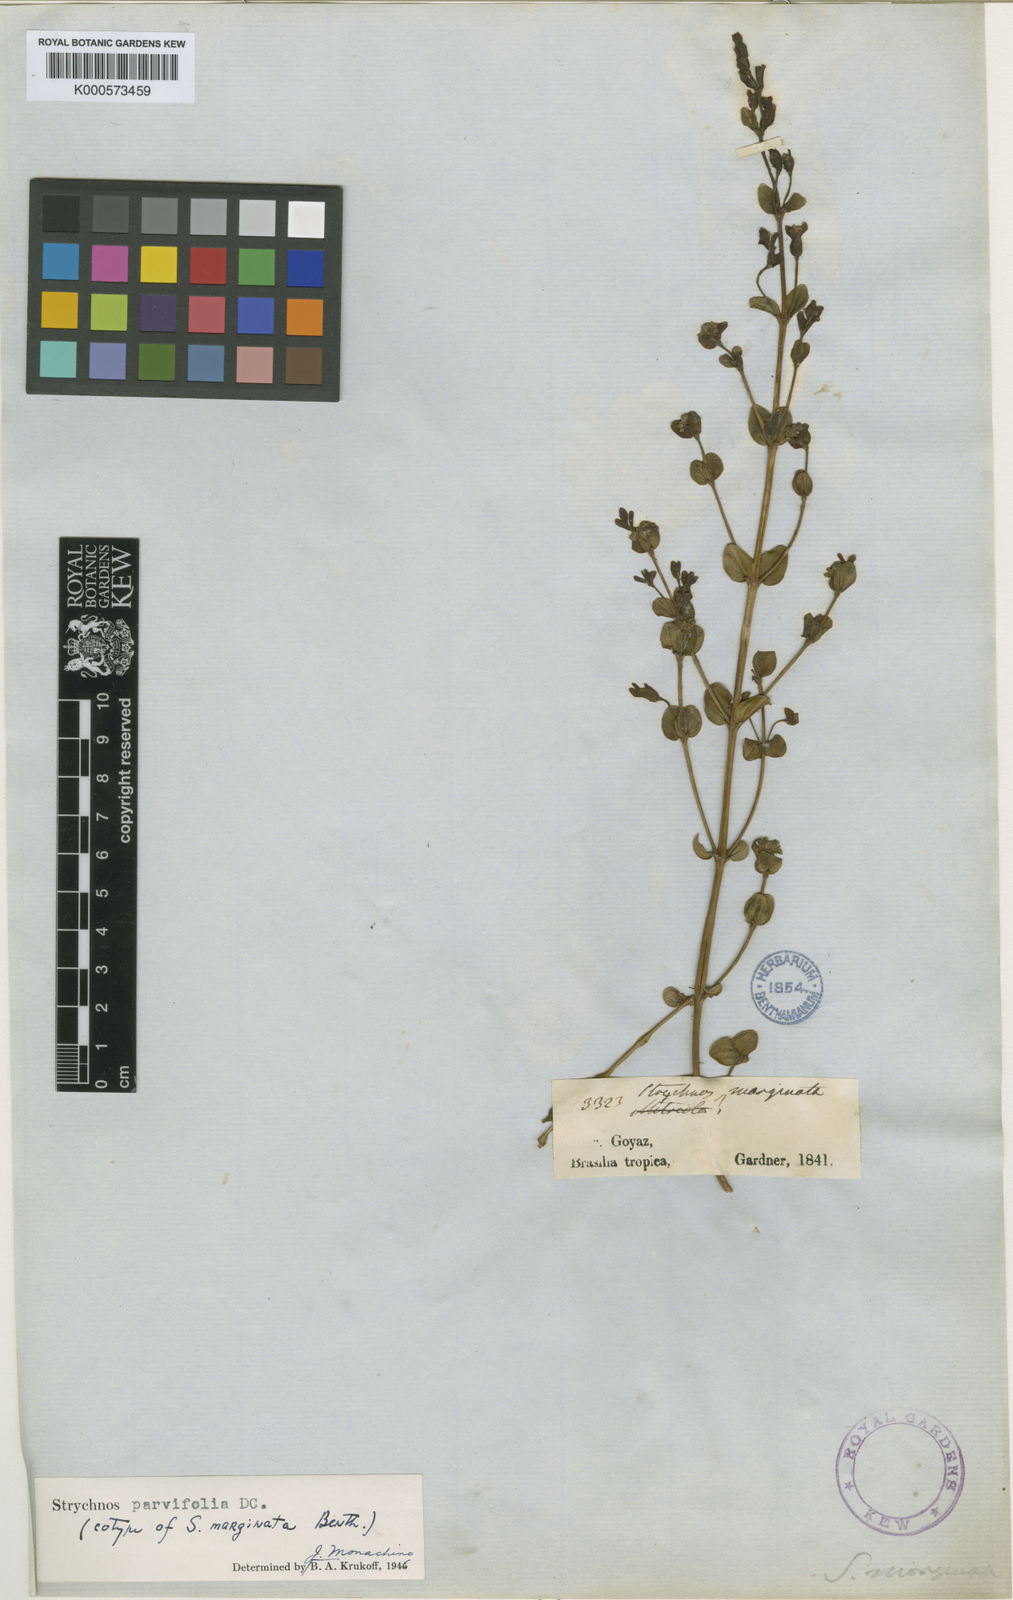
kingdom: Plantae
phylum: Tracheophyta
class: Magnoliopsida
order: Gentianales
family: Loganiaceae
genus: Strychnos
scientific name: Strychnos parvifolia
